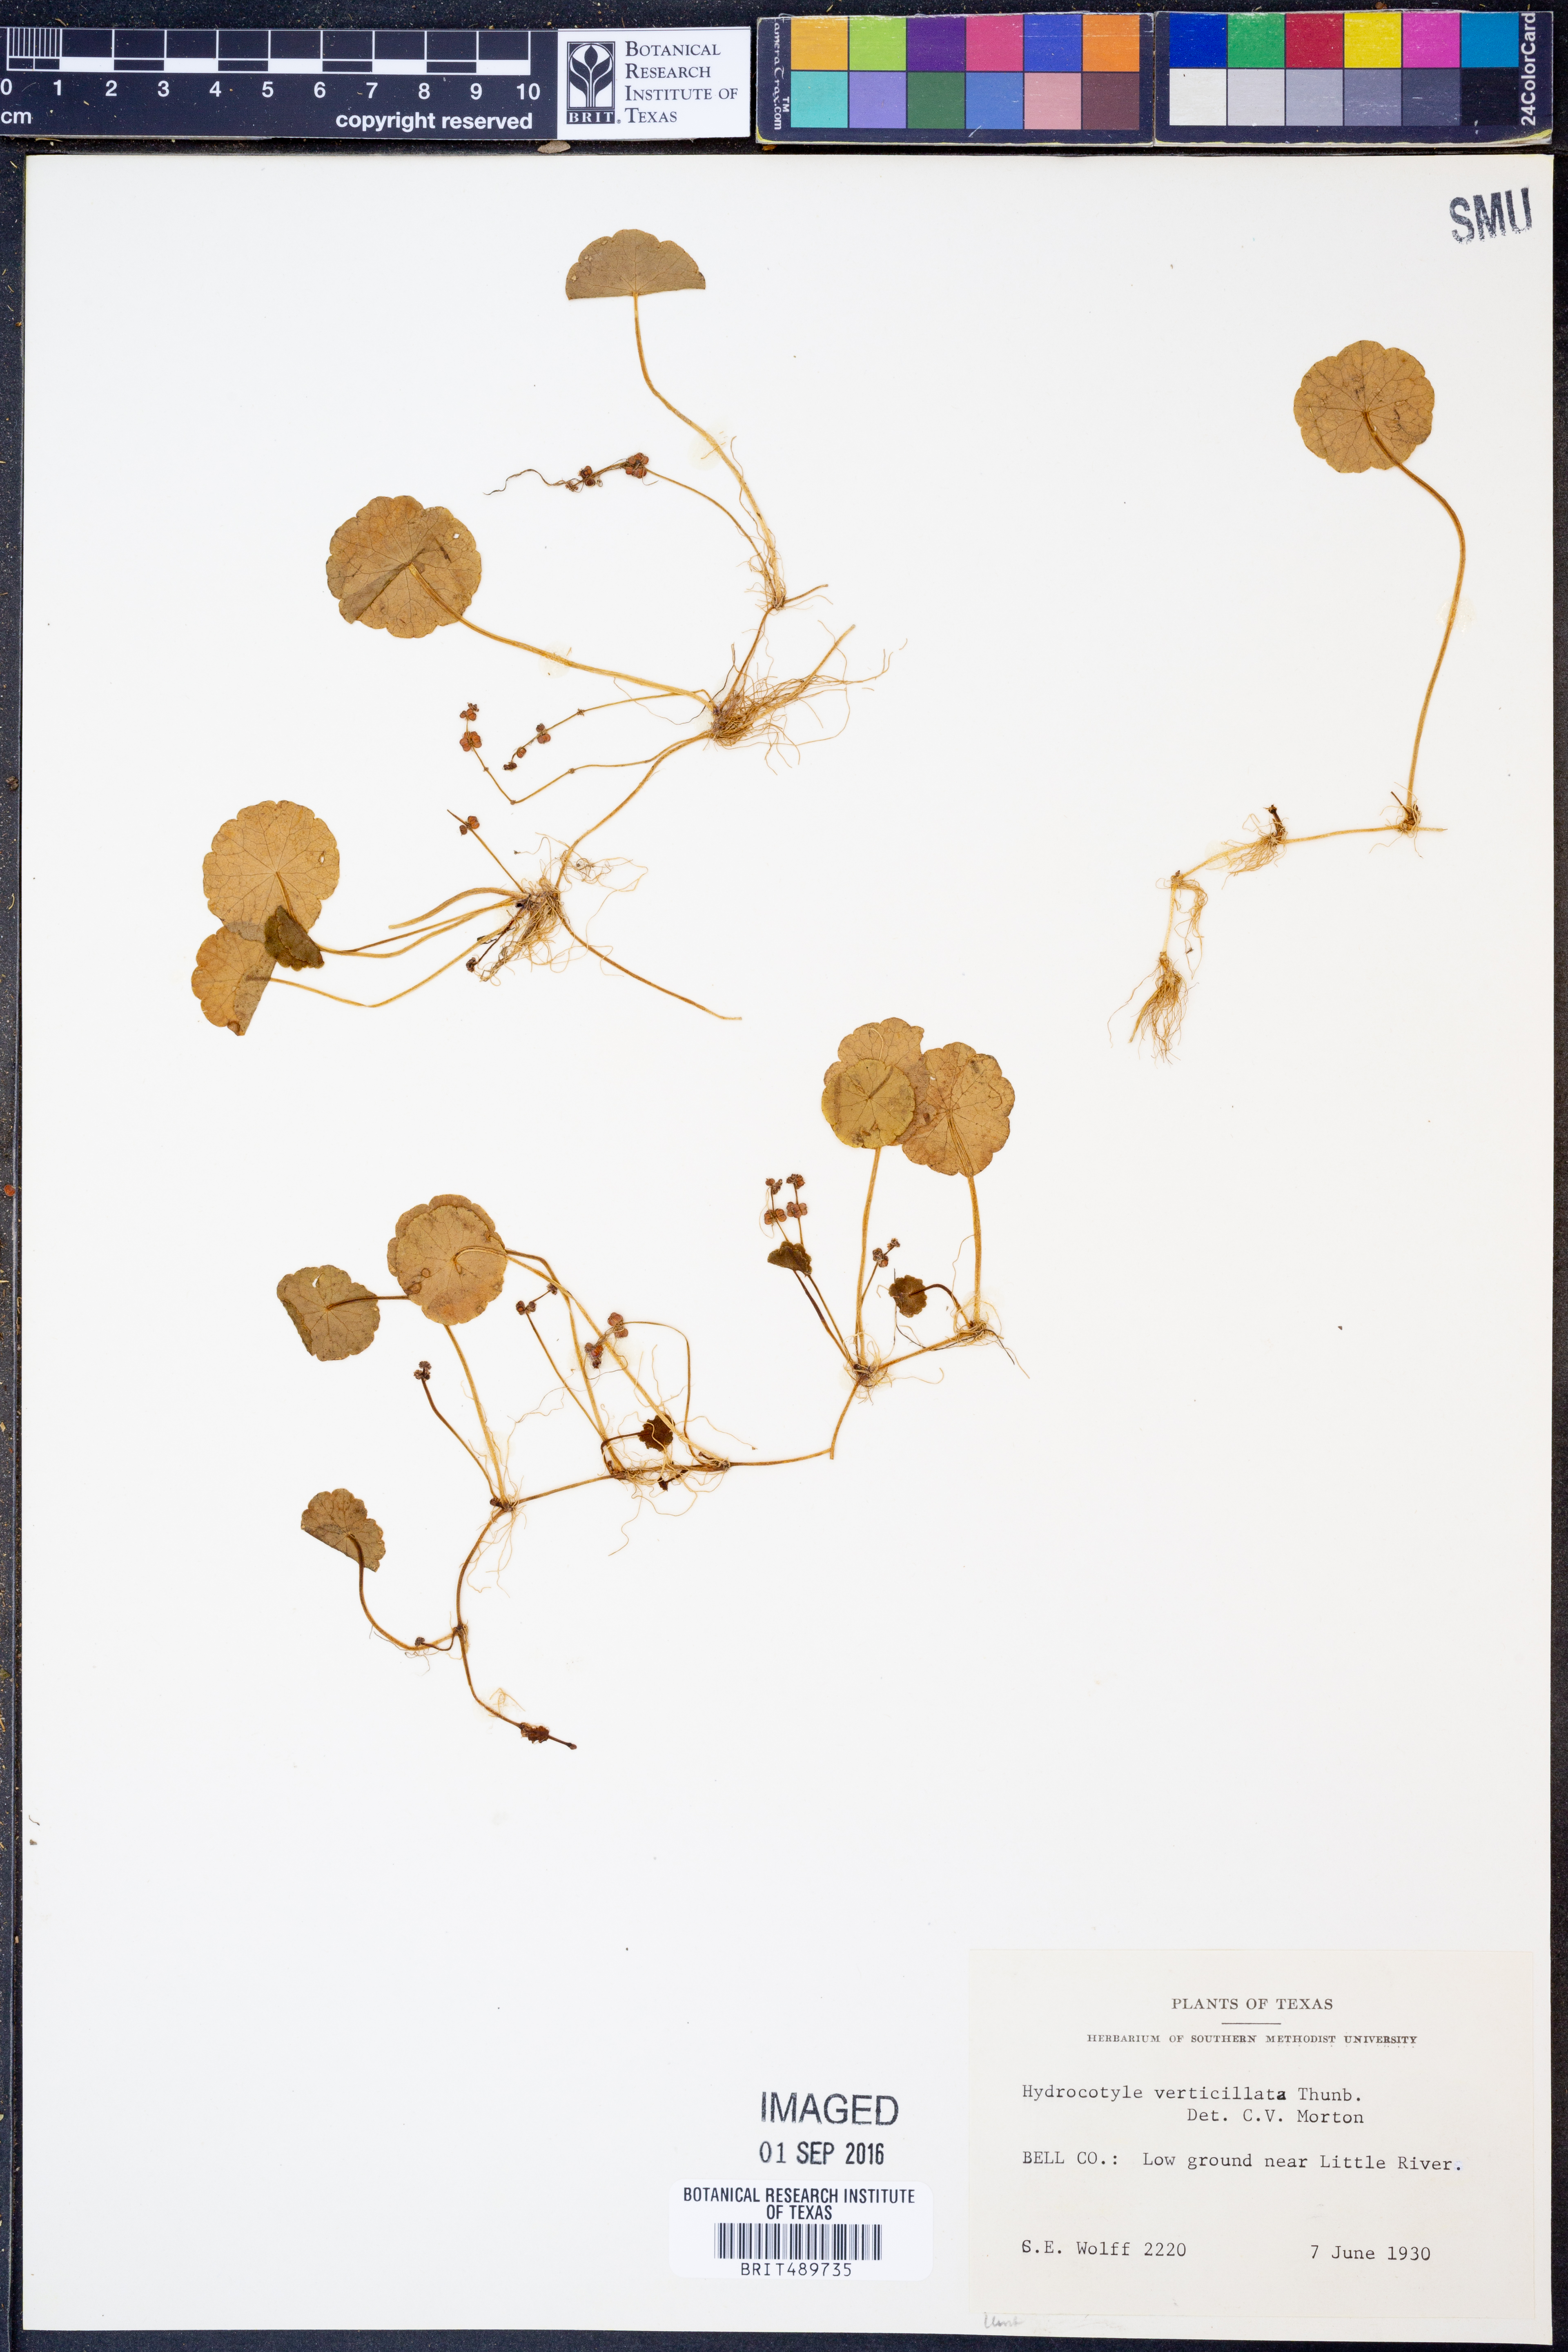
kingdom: Plantae
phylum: Tracheophyta
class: Magnoliopsida
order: Apiales
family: Araliaceae
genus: Hydrocotyle
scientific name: Hydrocotyle verticillata
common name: Whorled marshpennywort
